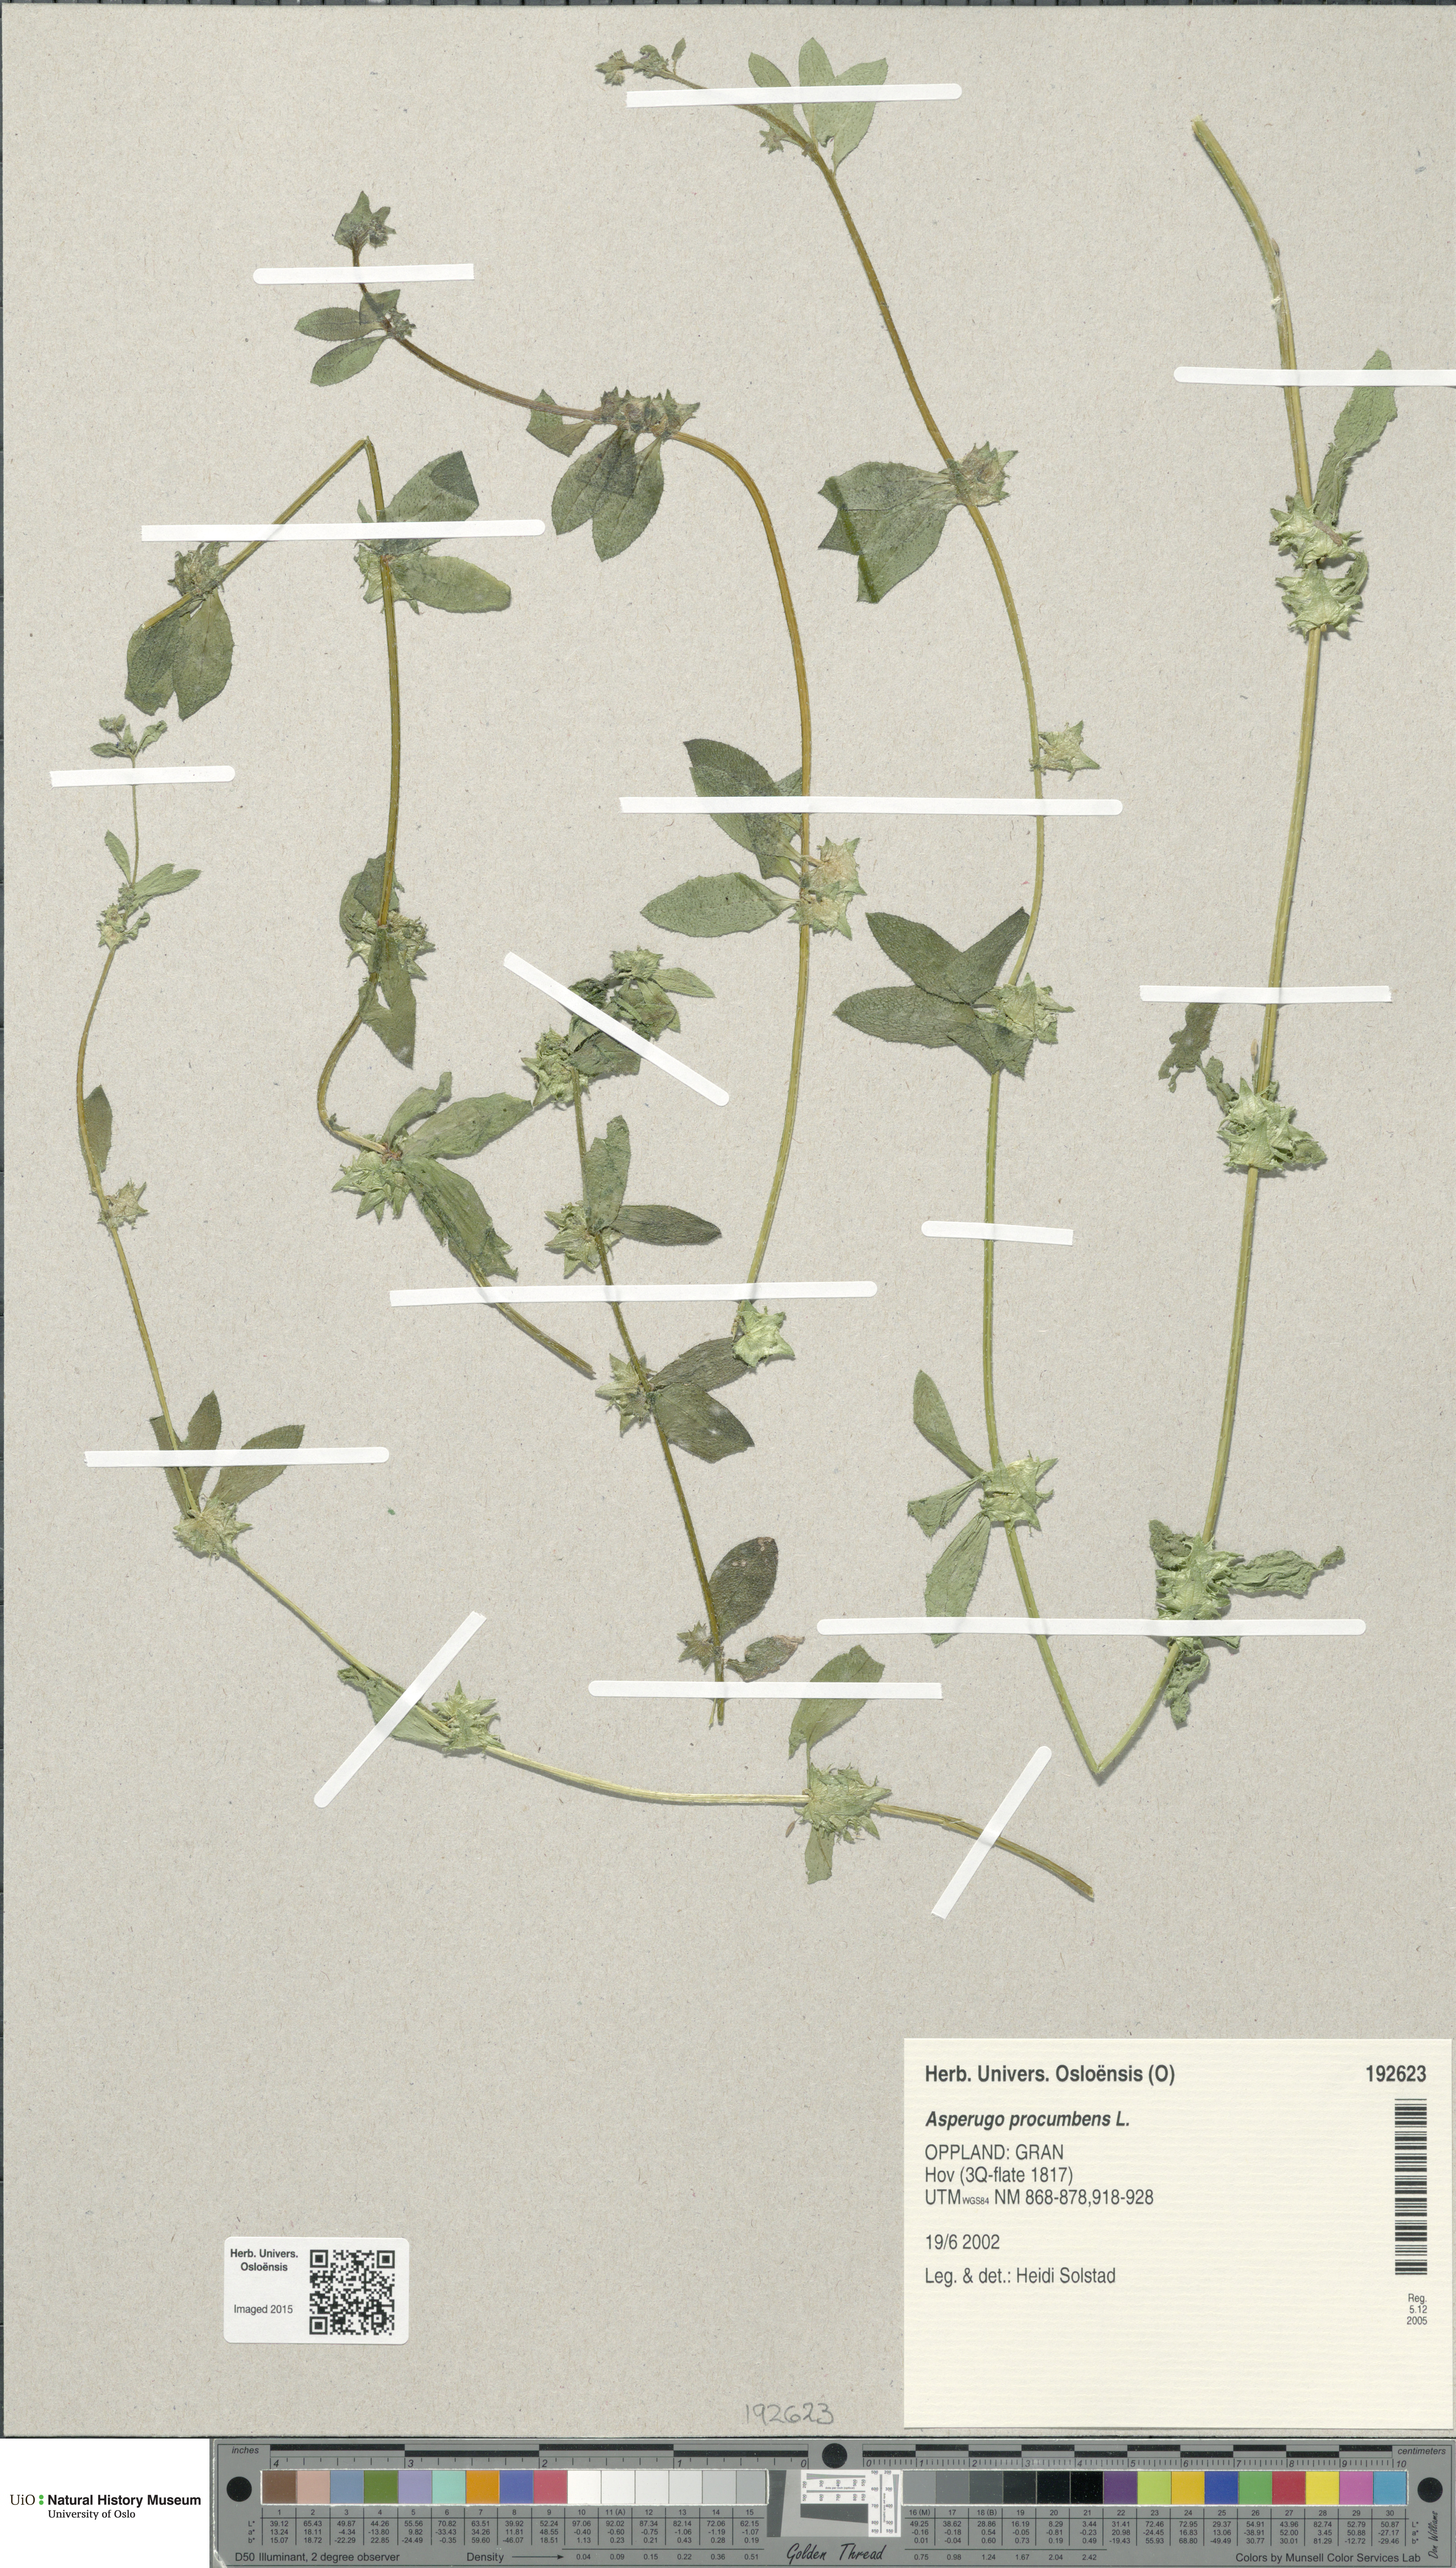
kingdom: Plantae
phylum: Tracheophyta
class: Magnoliopsida
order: Boraginales
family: Boraginaceae
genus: Asperugo
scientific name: Asperugo procumbens
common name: Madwort
